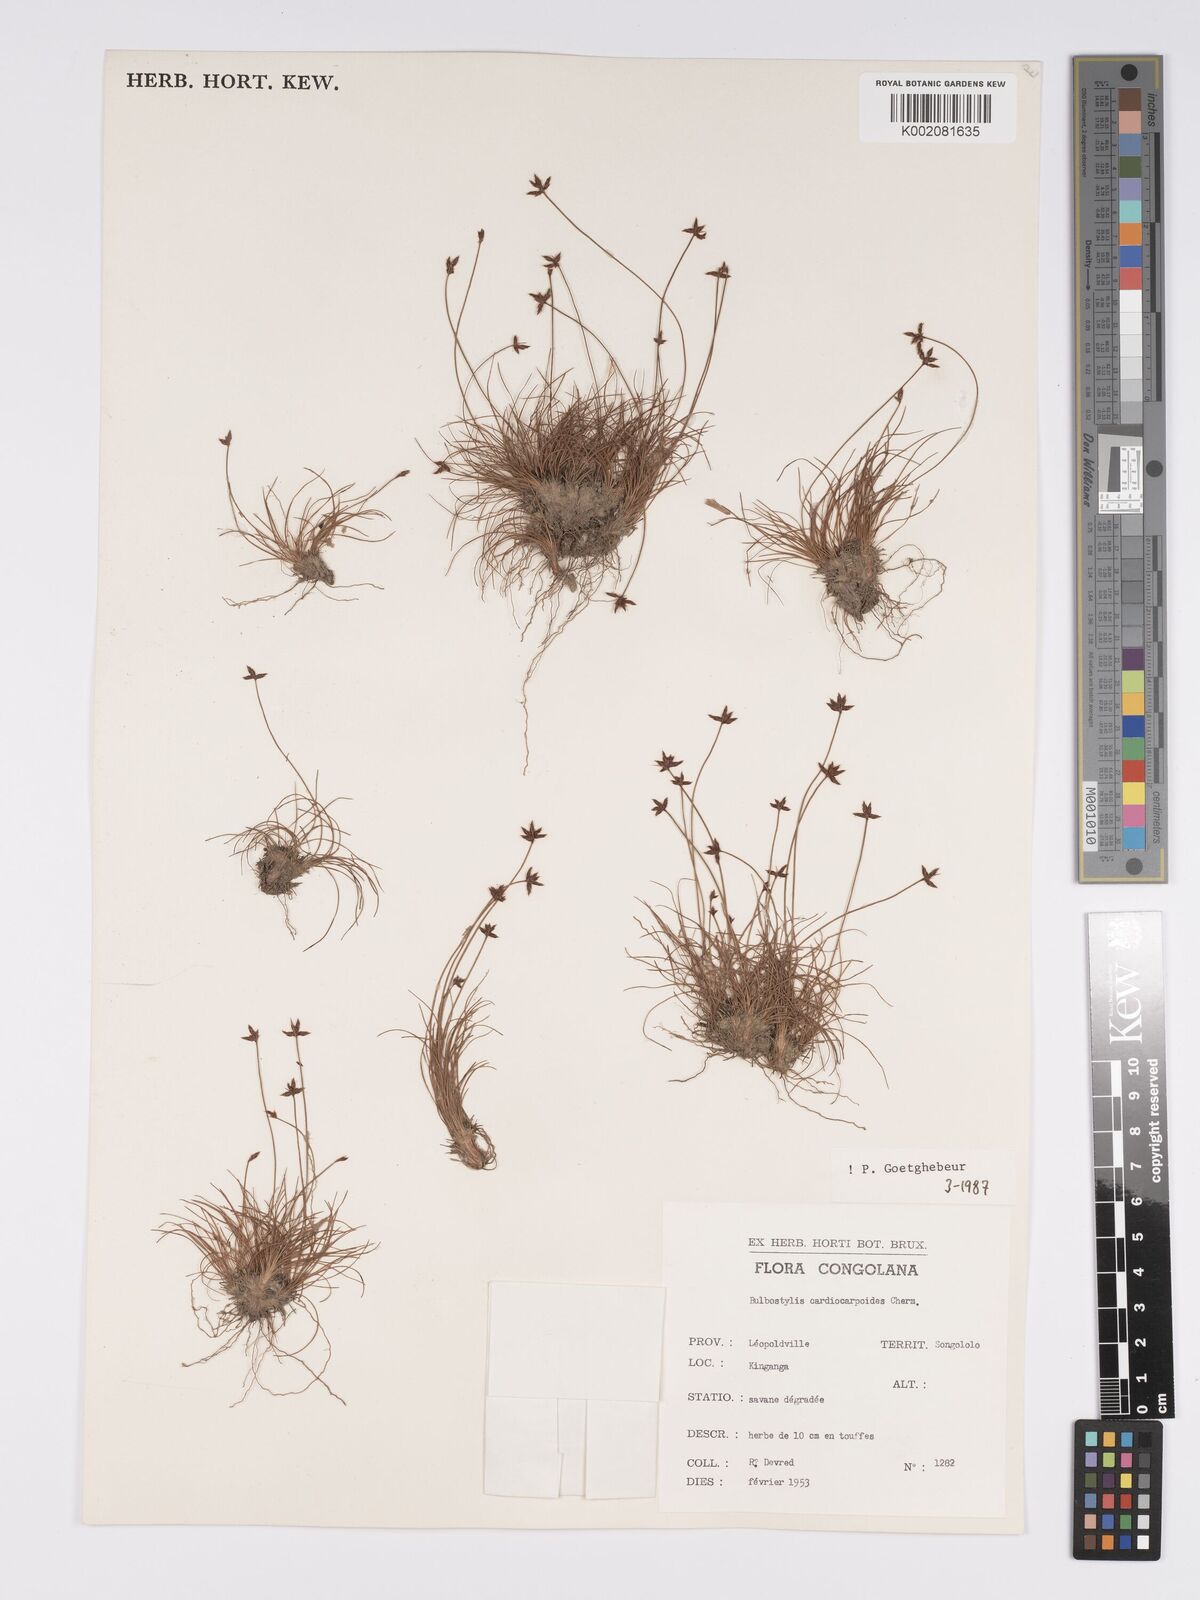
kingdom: Plantae
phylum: Tracheophyta
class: Liliopsida
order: Poales
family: Cyperaceae
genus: Bulbostylis
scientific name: Bulbostylis cardiocarpoides
